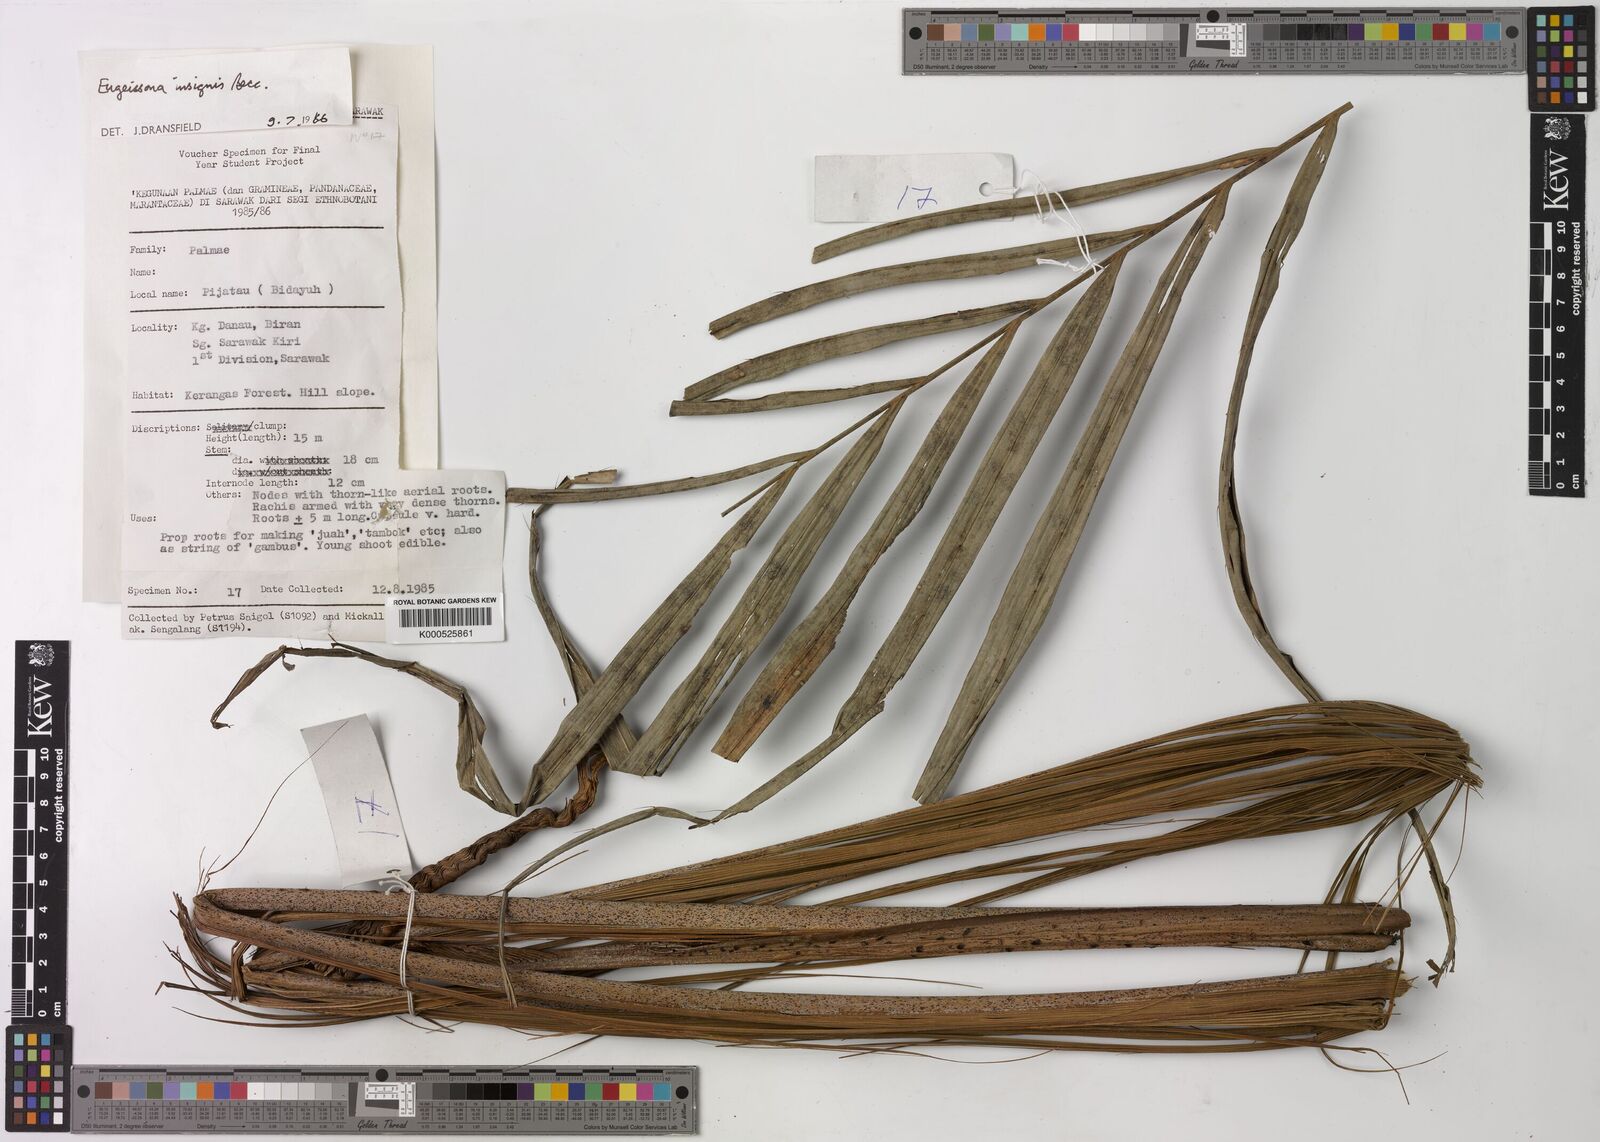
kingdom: Plantae
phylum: Tracheophyta
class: Liliopsida
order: Arecales
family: Arecaceae
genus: Eugeissona
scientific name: Eugeissona insignis
